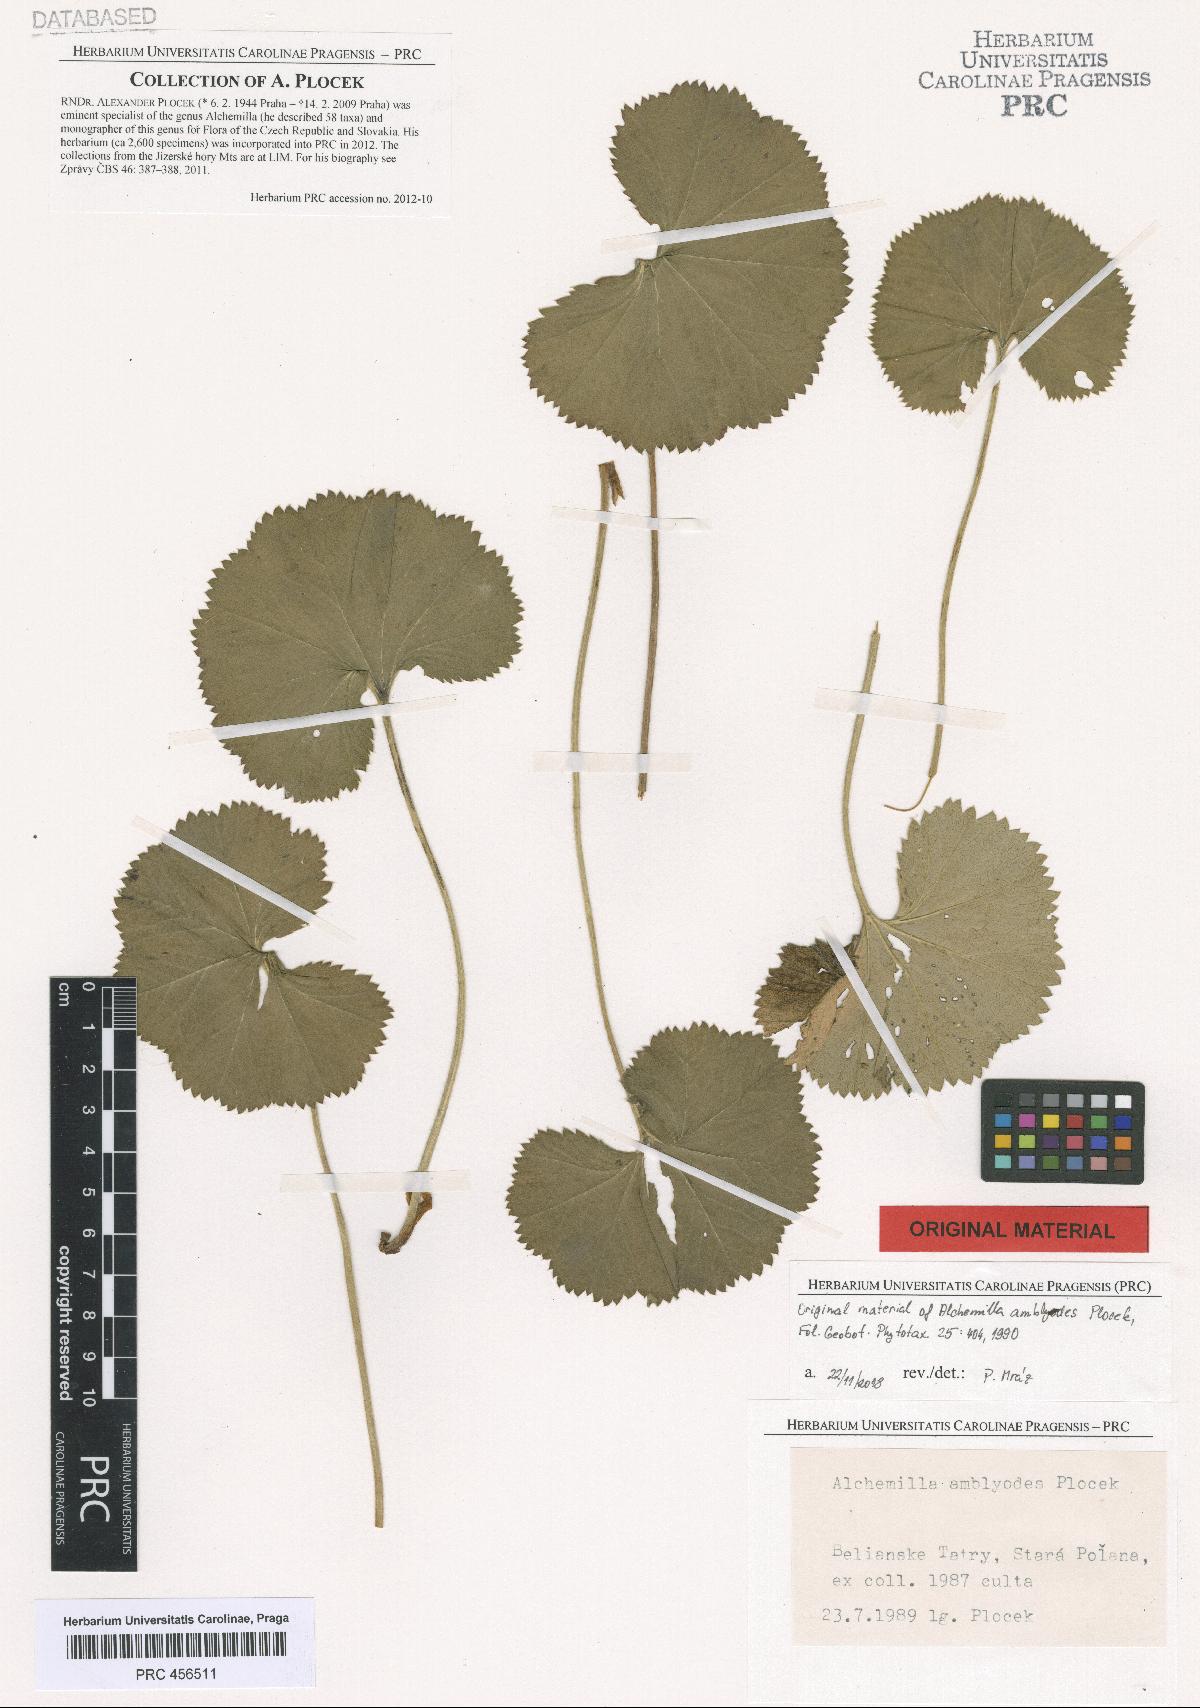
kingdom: Plantae
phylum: Tracheophyta
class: Magnoliopsida
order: Rosales
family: Rosaceae
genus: Alchemilla
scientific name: Alchemilla amblyodes
